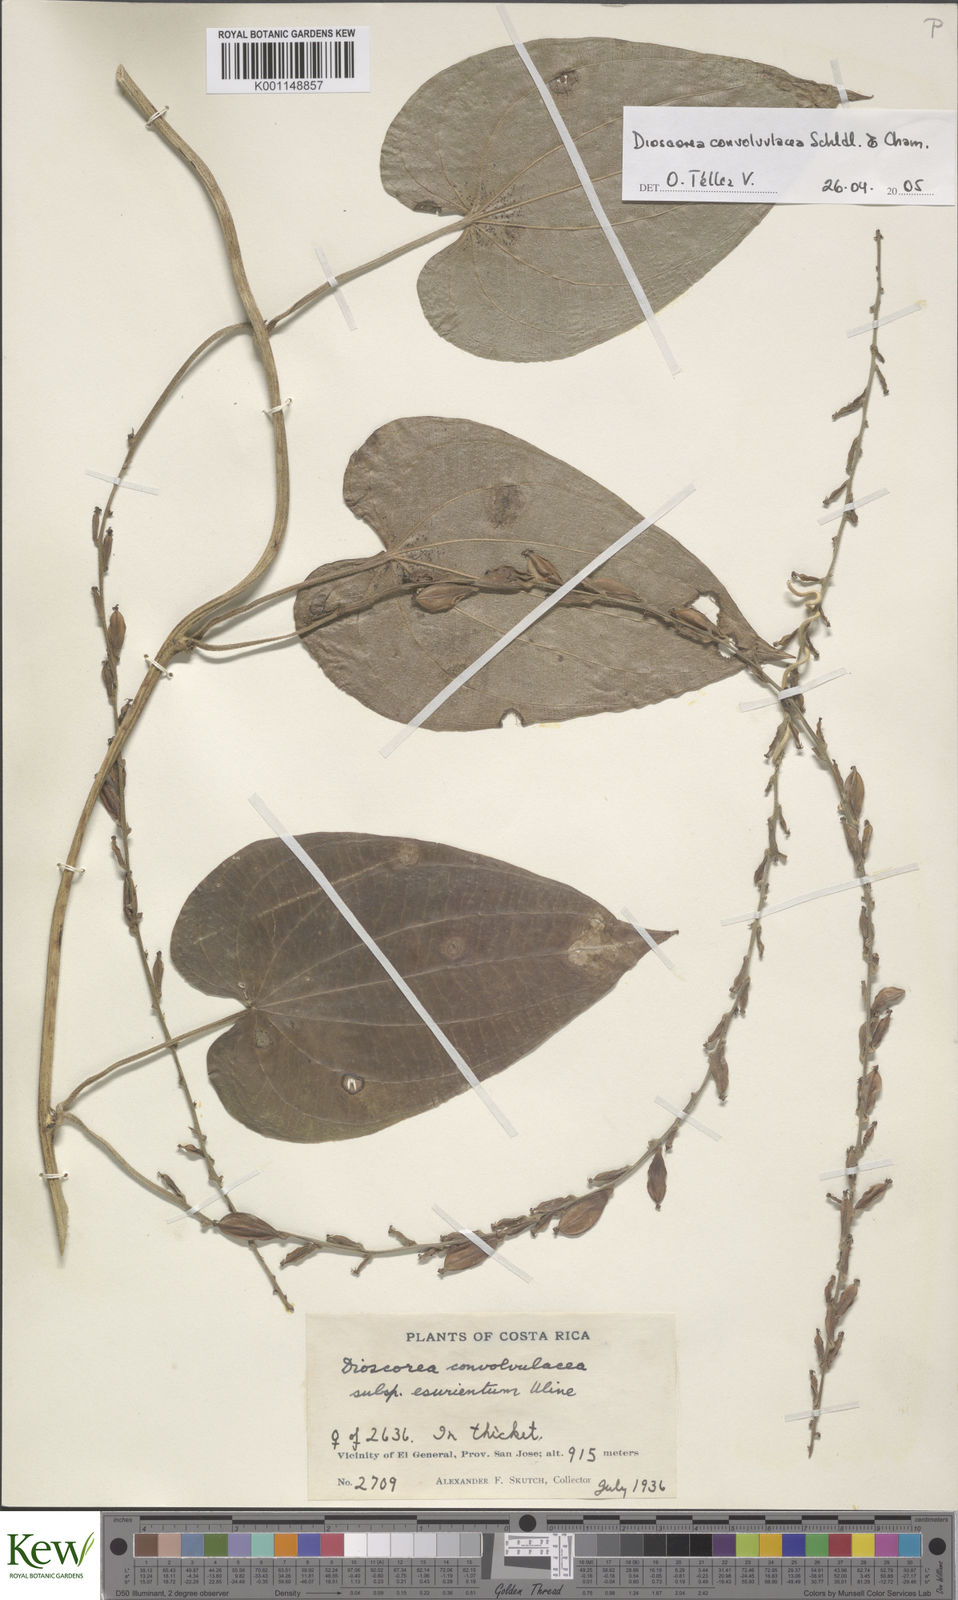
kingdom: Plantae
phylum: Tracheophyta
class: Liliopsida
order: Dioscoreales
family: Dioscoreaceae
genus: Dioscorea
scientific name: Dioscorea convolvulacea
